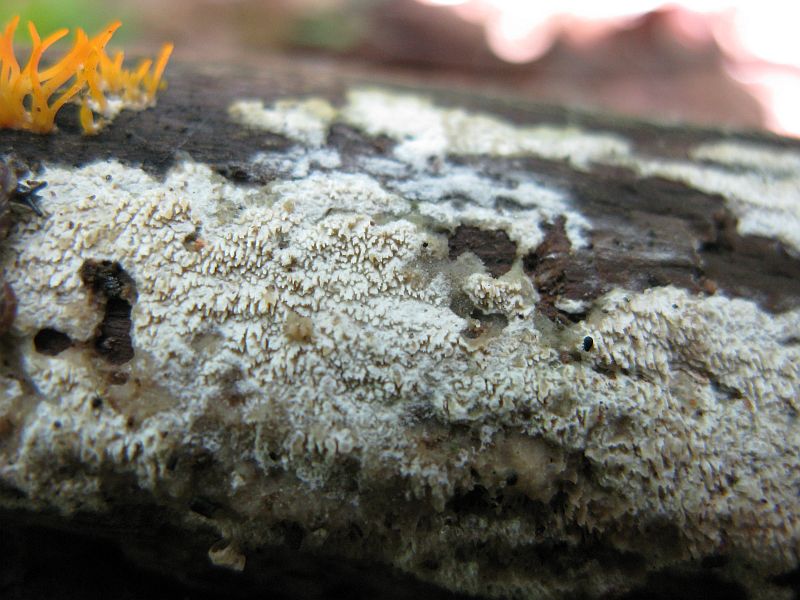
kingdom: Fungi
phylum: Basidiomycota
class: Agaricomycetes
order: Hymenochaetales
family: Schizoporaceae
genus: Schizopora
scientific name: Schizopora paradoxa
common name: hvid tandsvamp
